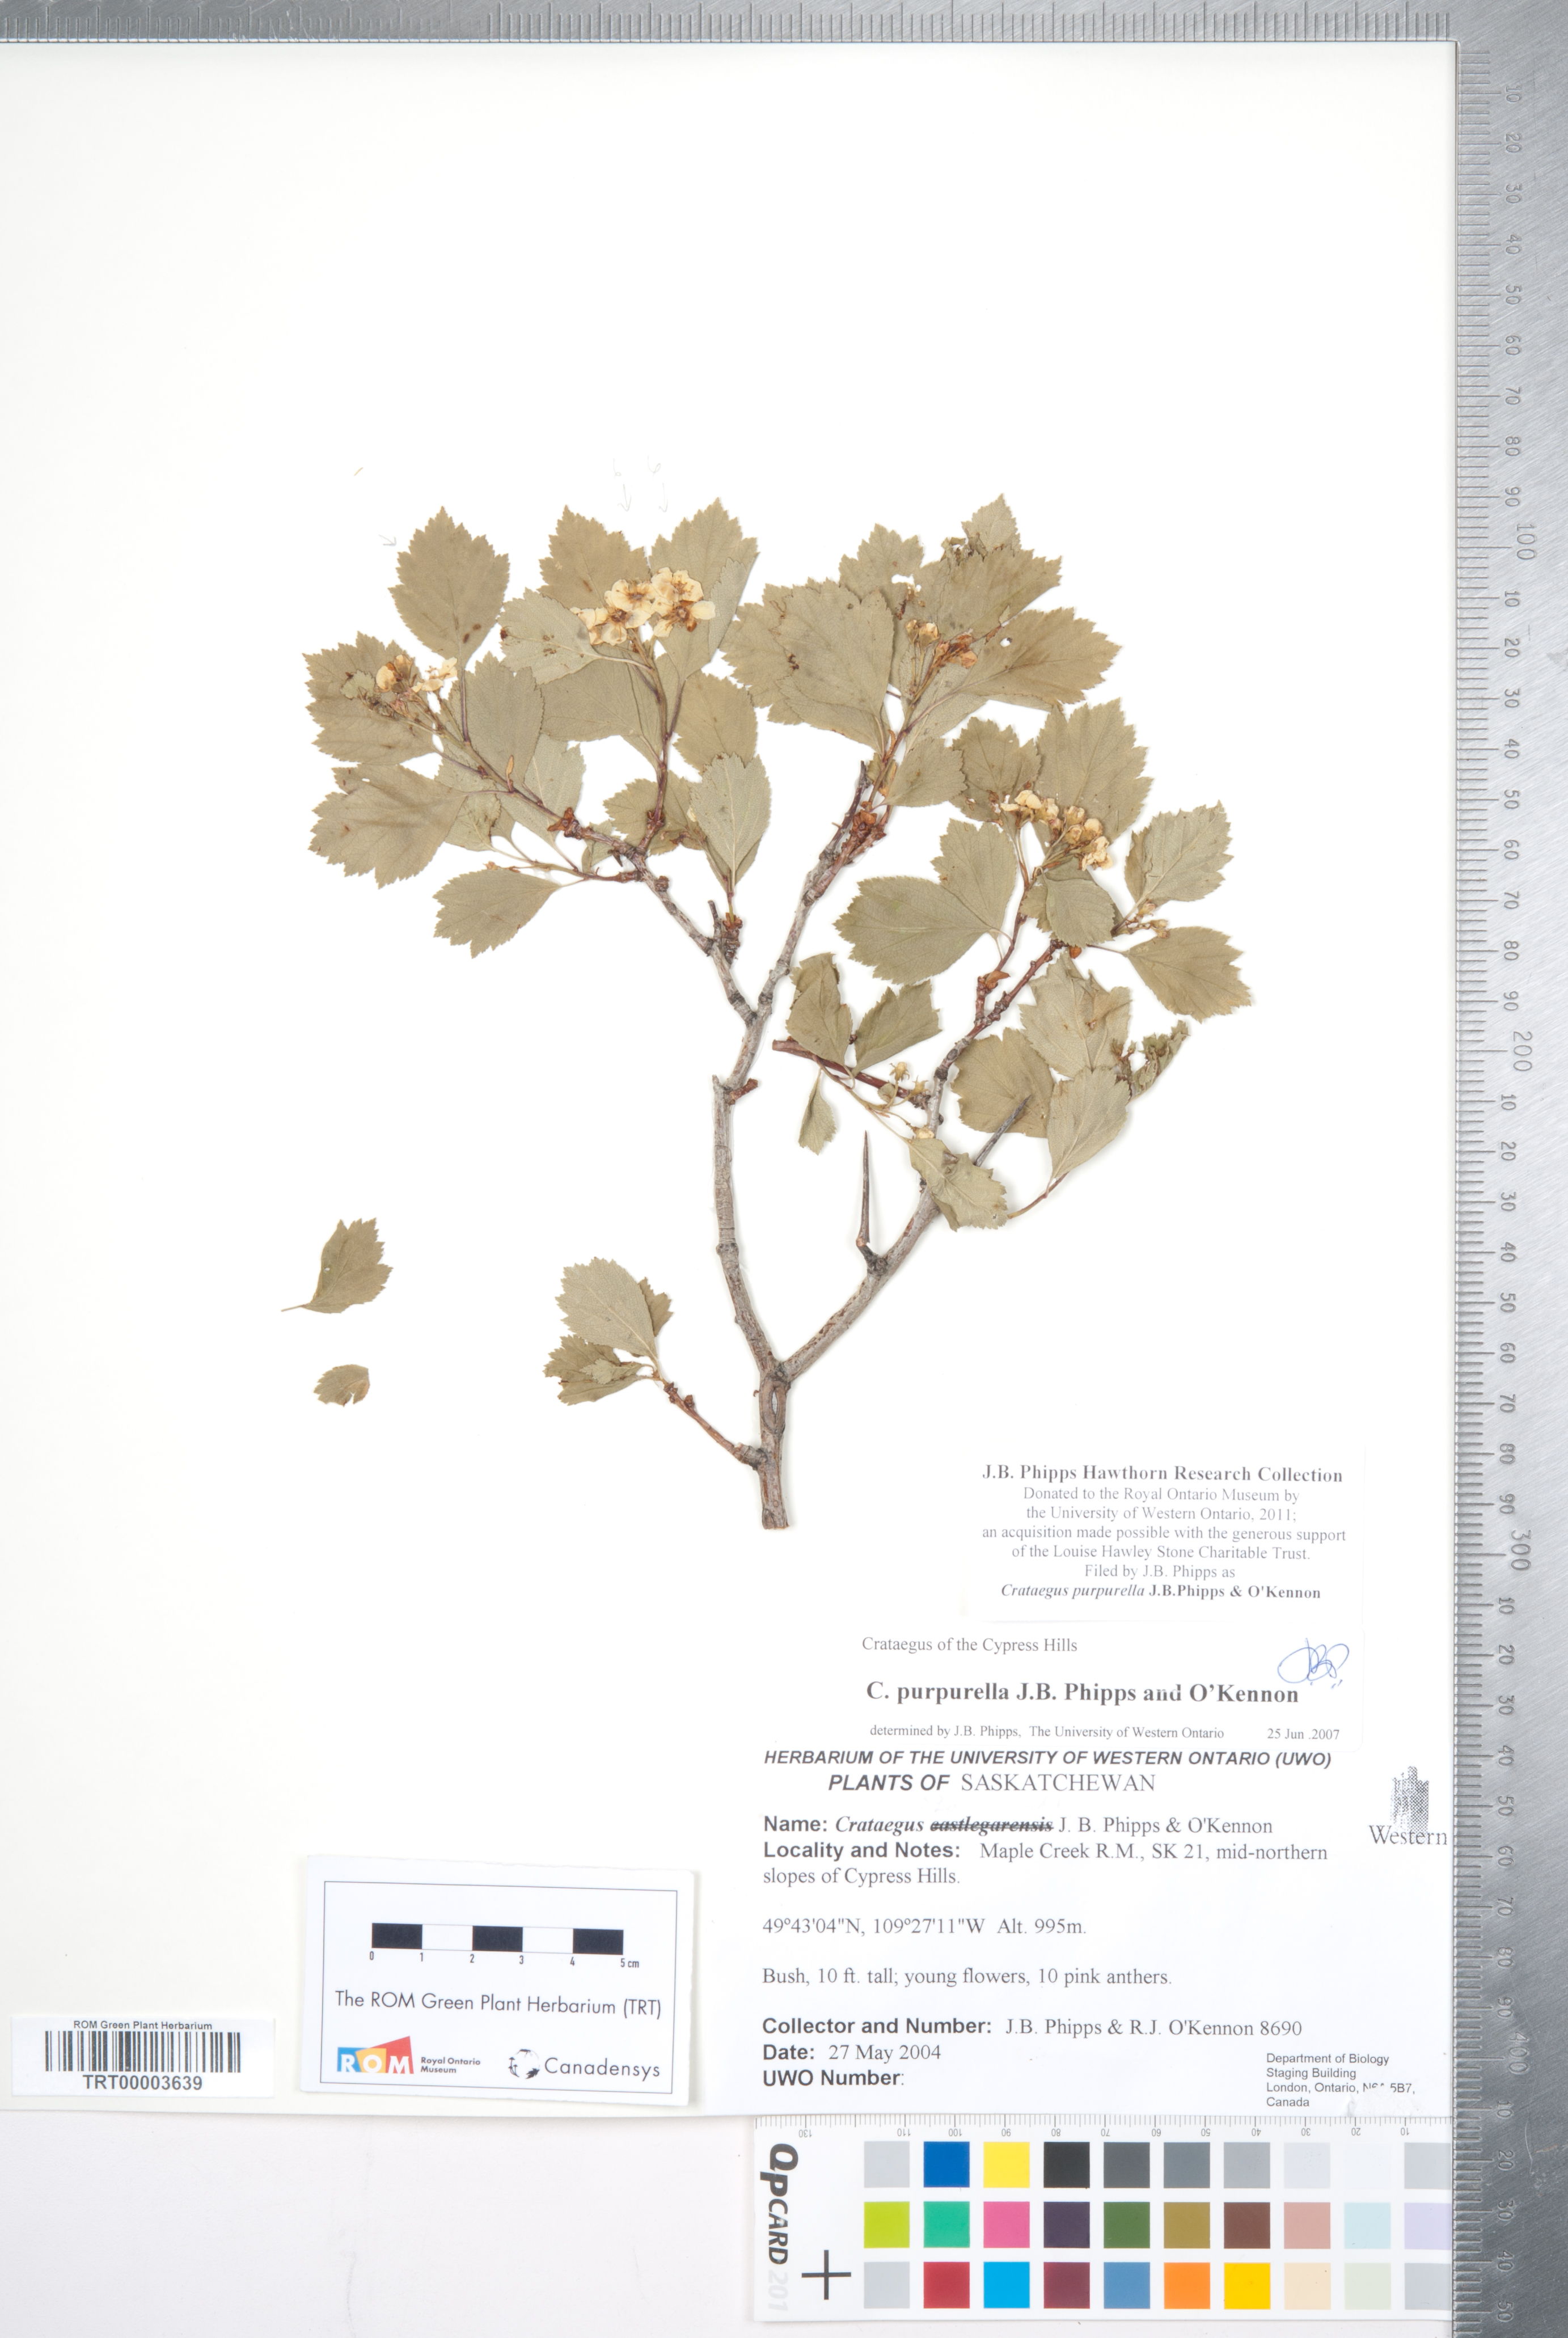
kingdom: Plantae
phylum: Tracheophyta
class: Magnoliopsida
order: Rosales
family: Rosaceae
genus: Crataegus
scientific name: Crataegus purpurella
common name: Loch lomond hawthorn
